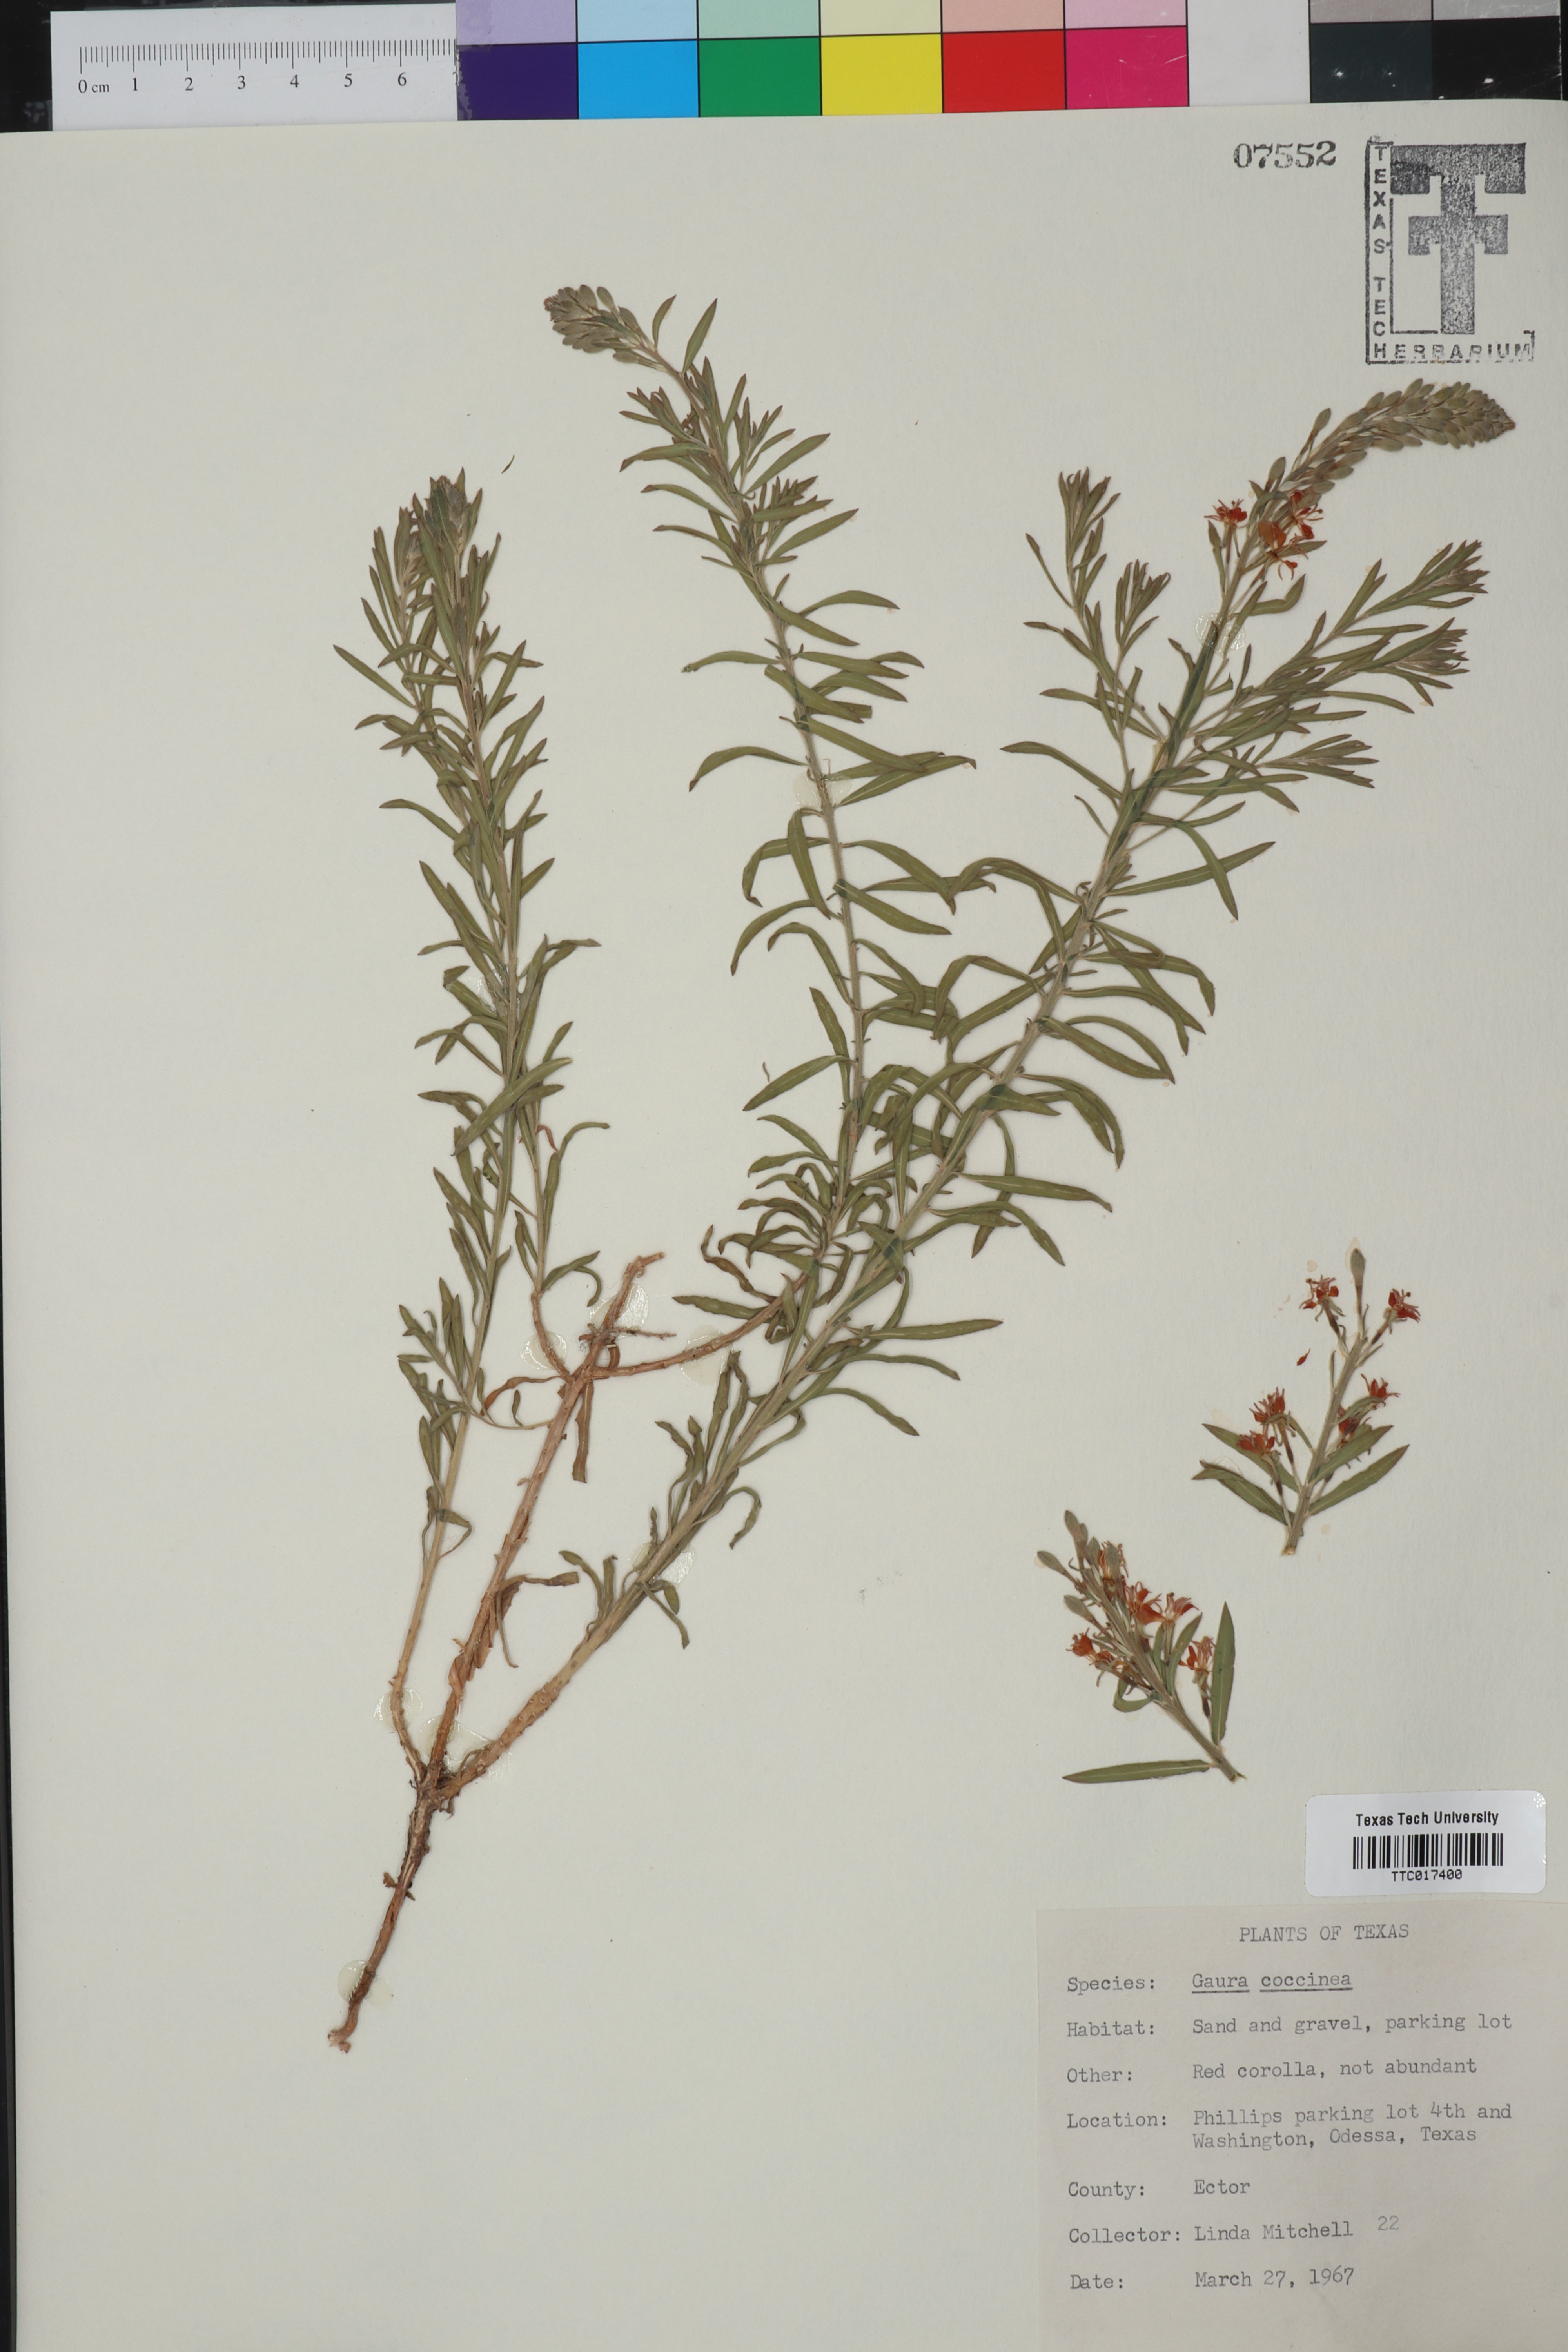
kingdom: Plantae
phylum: Tracheophyta
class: Magnoliopsida
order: Myrtales
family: Onagraceae
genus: Oenothera
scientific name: Oenothera suffrutescens
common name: Scarlet beeblossom
